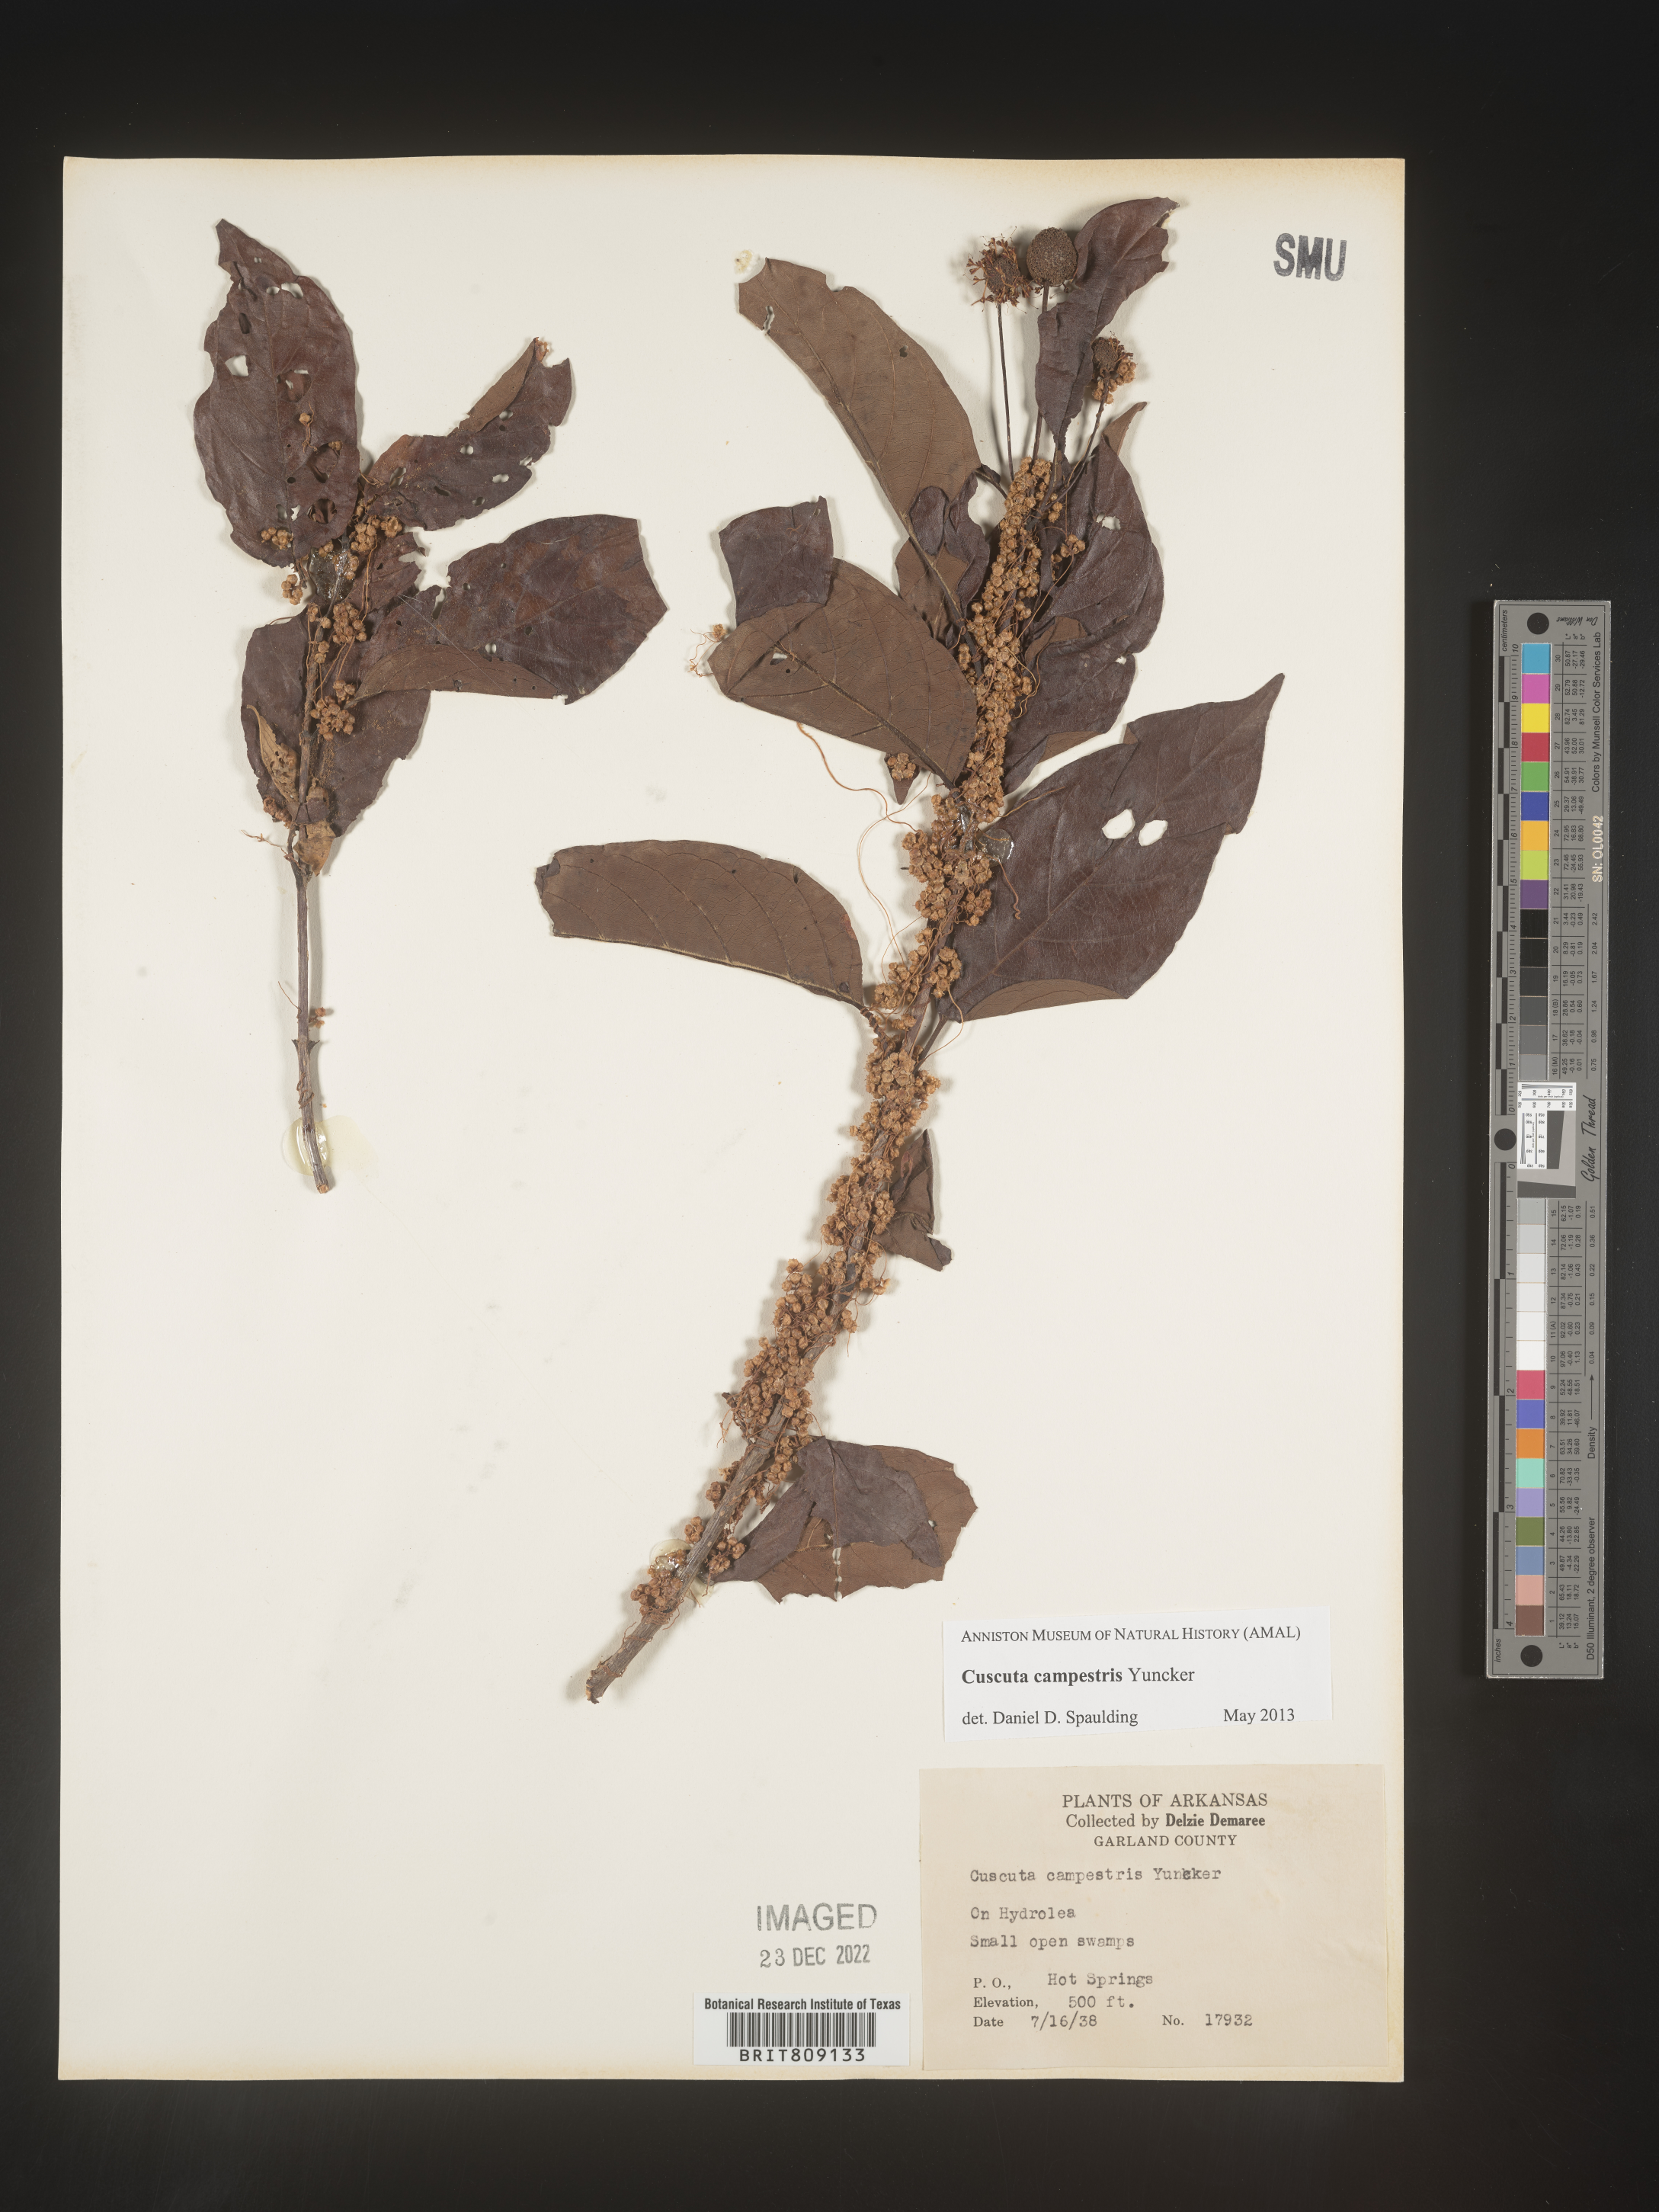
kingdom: Plantae
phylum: Tracheophyta
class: Magnoliopsida
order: Solanales
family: Convolvulaceae
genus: Cuscuta
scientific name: Cuscuta campestris
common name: Yellow dodder
